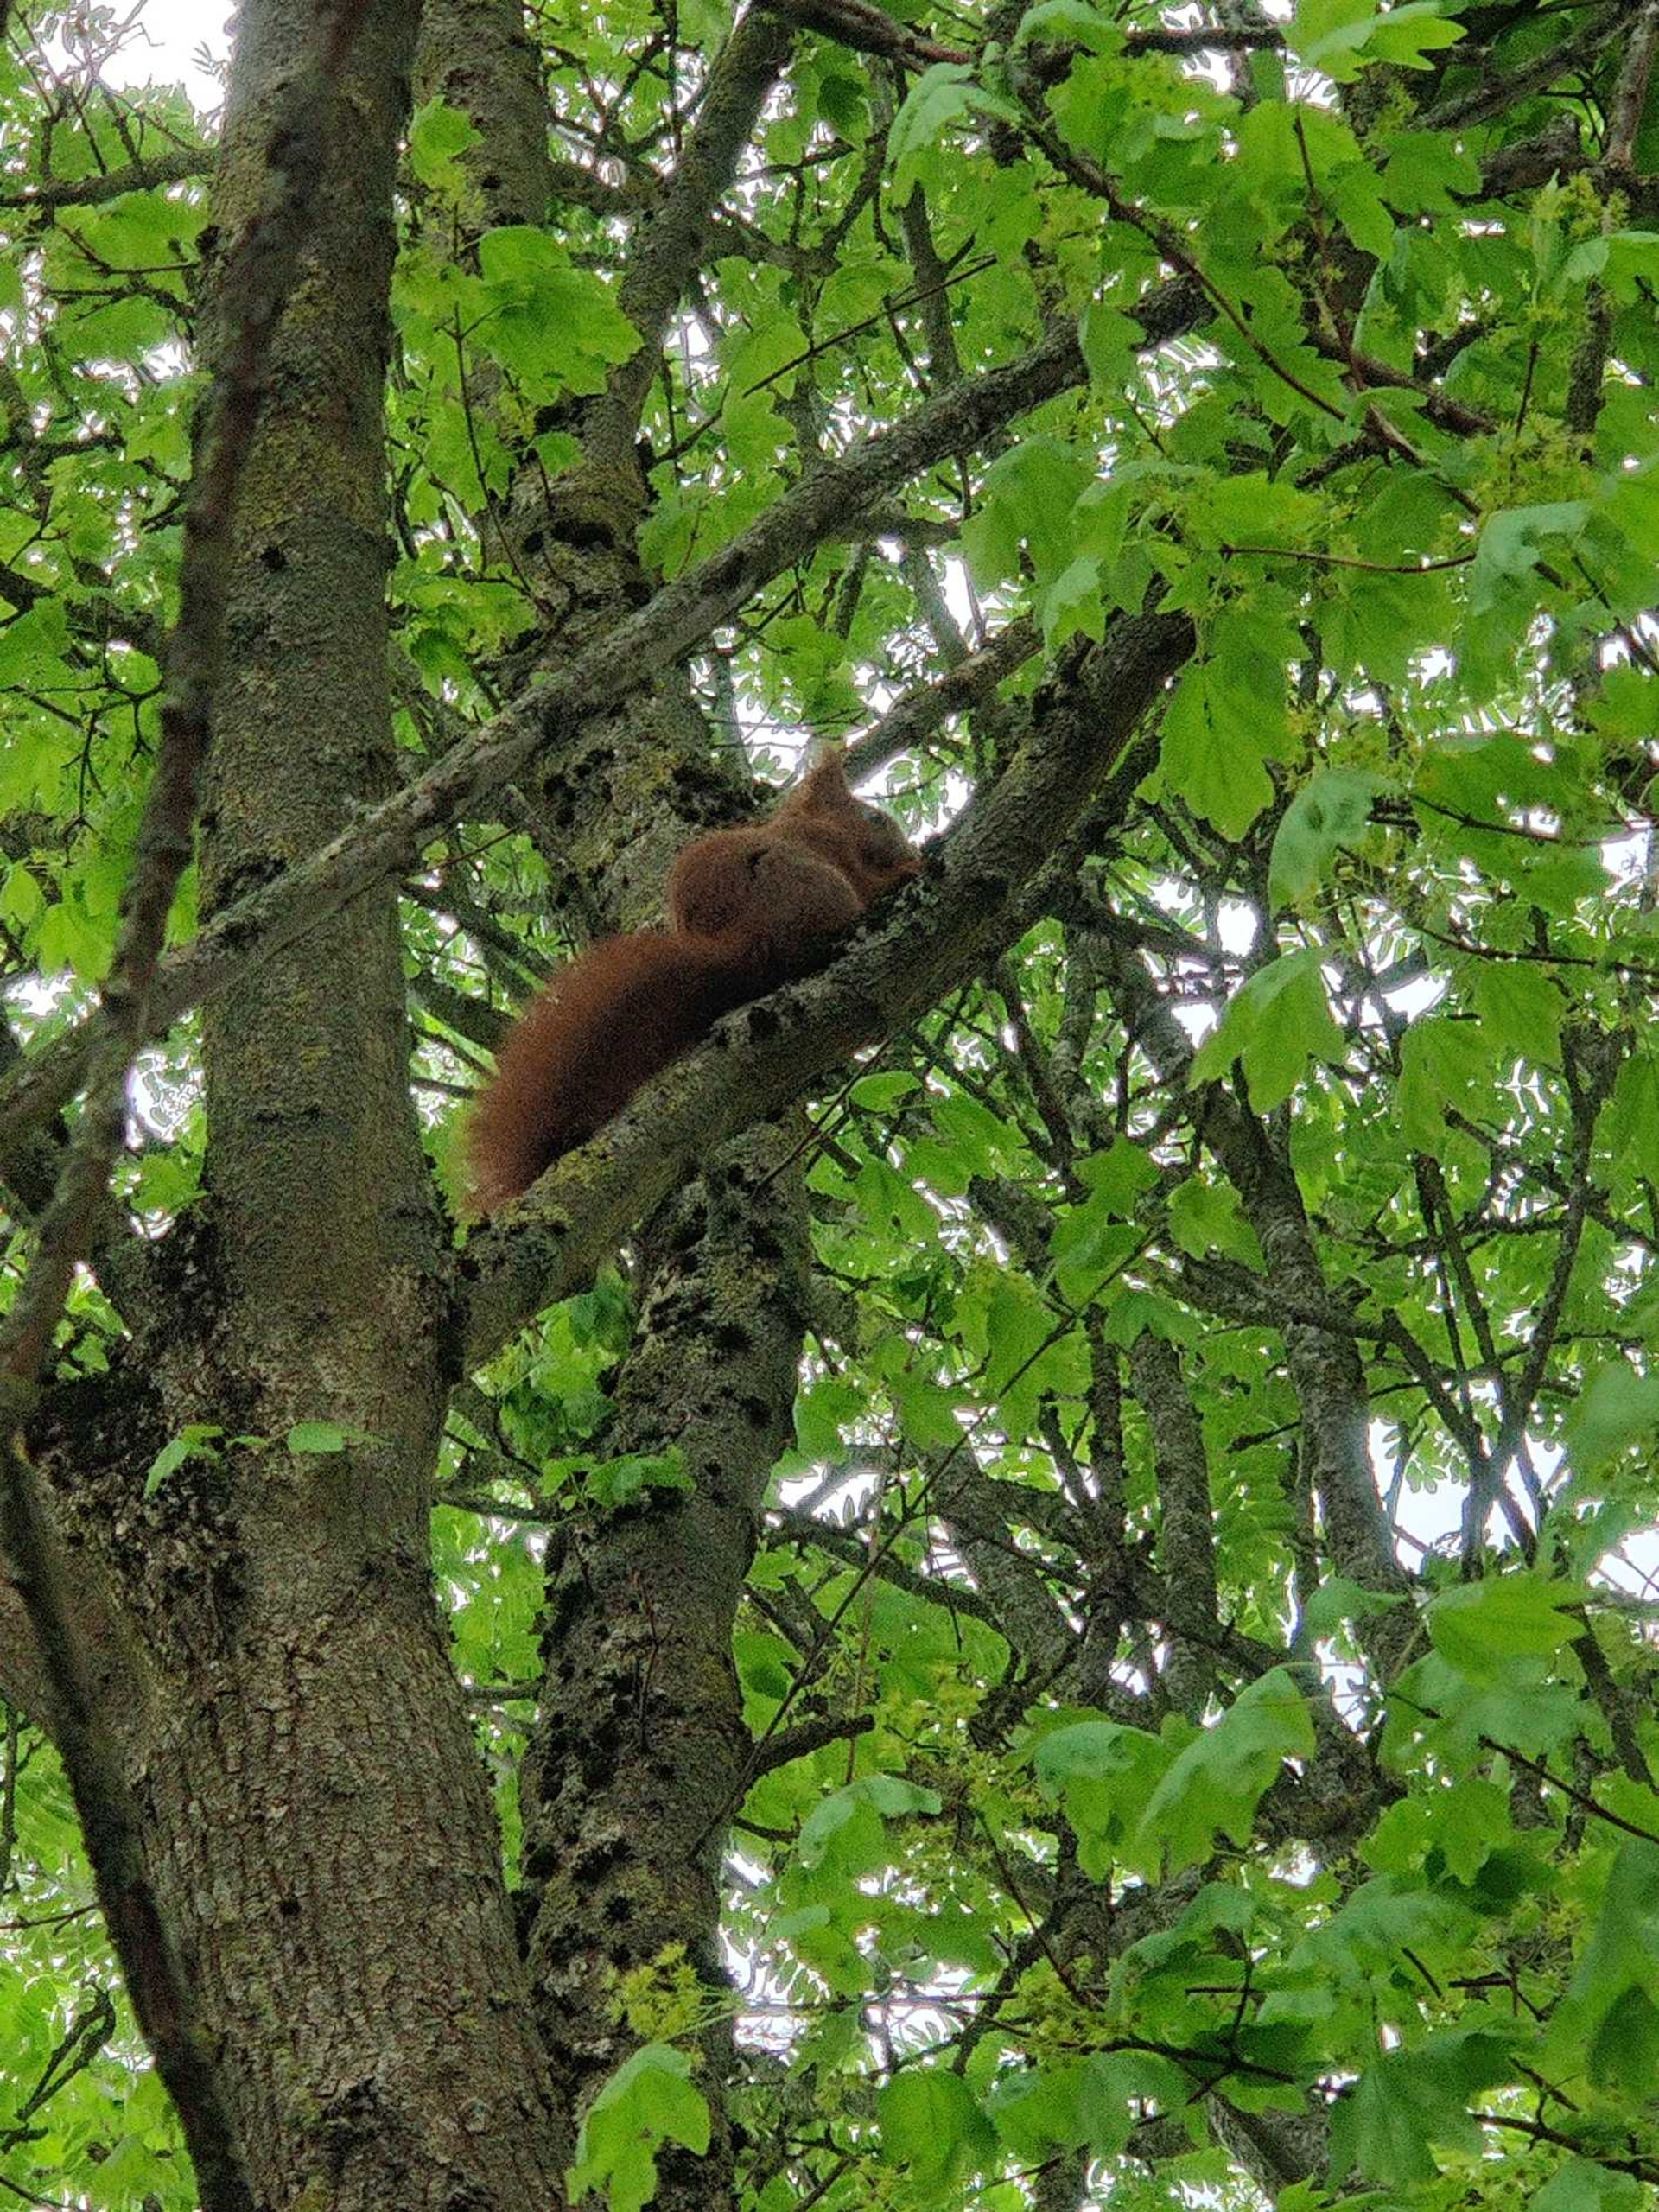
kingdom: Animalia
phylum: Chordata
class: Mammalia
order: Rodentia
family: Sciuridae
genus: Sciurus
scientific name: Sciurus vulgaris
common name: Egern
